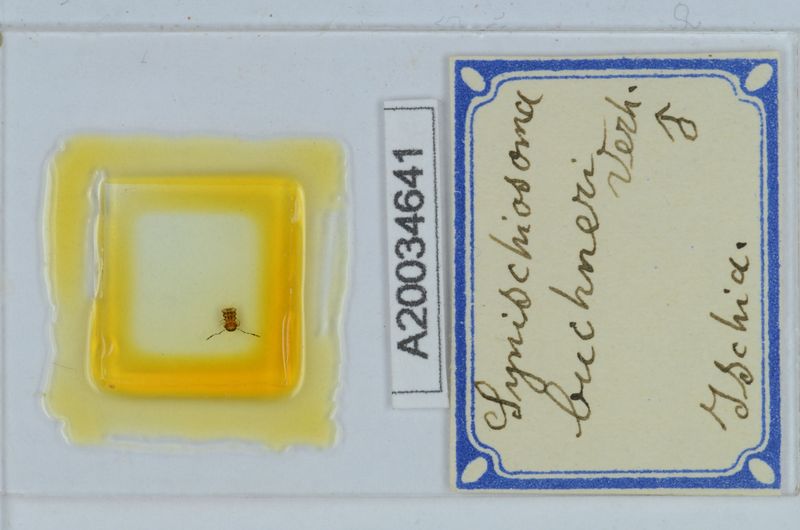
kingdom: Animalia
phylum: Arthropoda
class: Diplopoda
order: Chordeumatida
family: Craspedosomatidae
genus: Synischiosoma
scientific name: Synischiosoma buchneri
